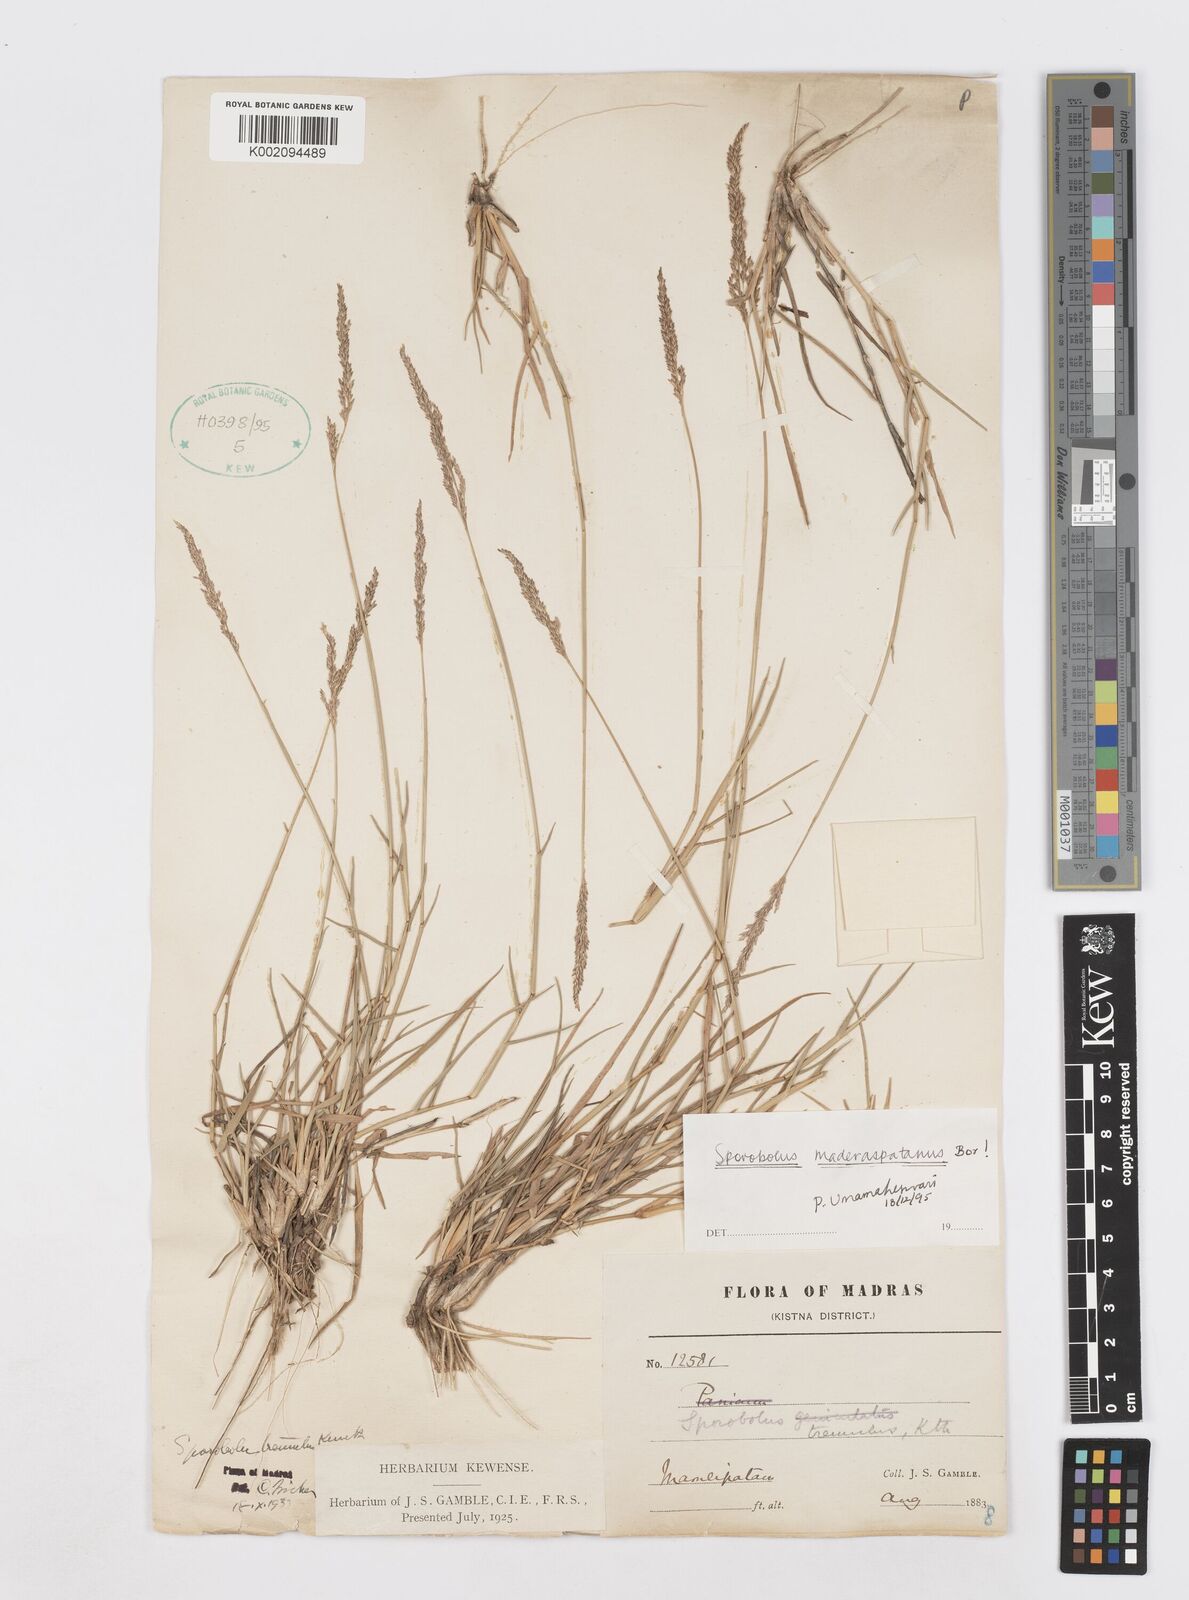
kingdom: Plantae
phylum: Tracheophyta
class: Liliopsida
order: Poales
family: Poaceae
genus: Sporobolus
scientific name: Sporobolus maderaspatanus
